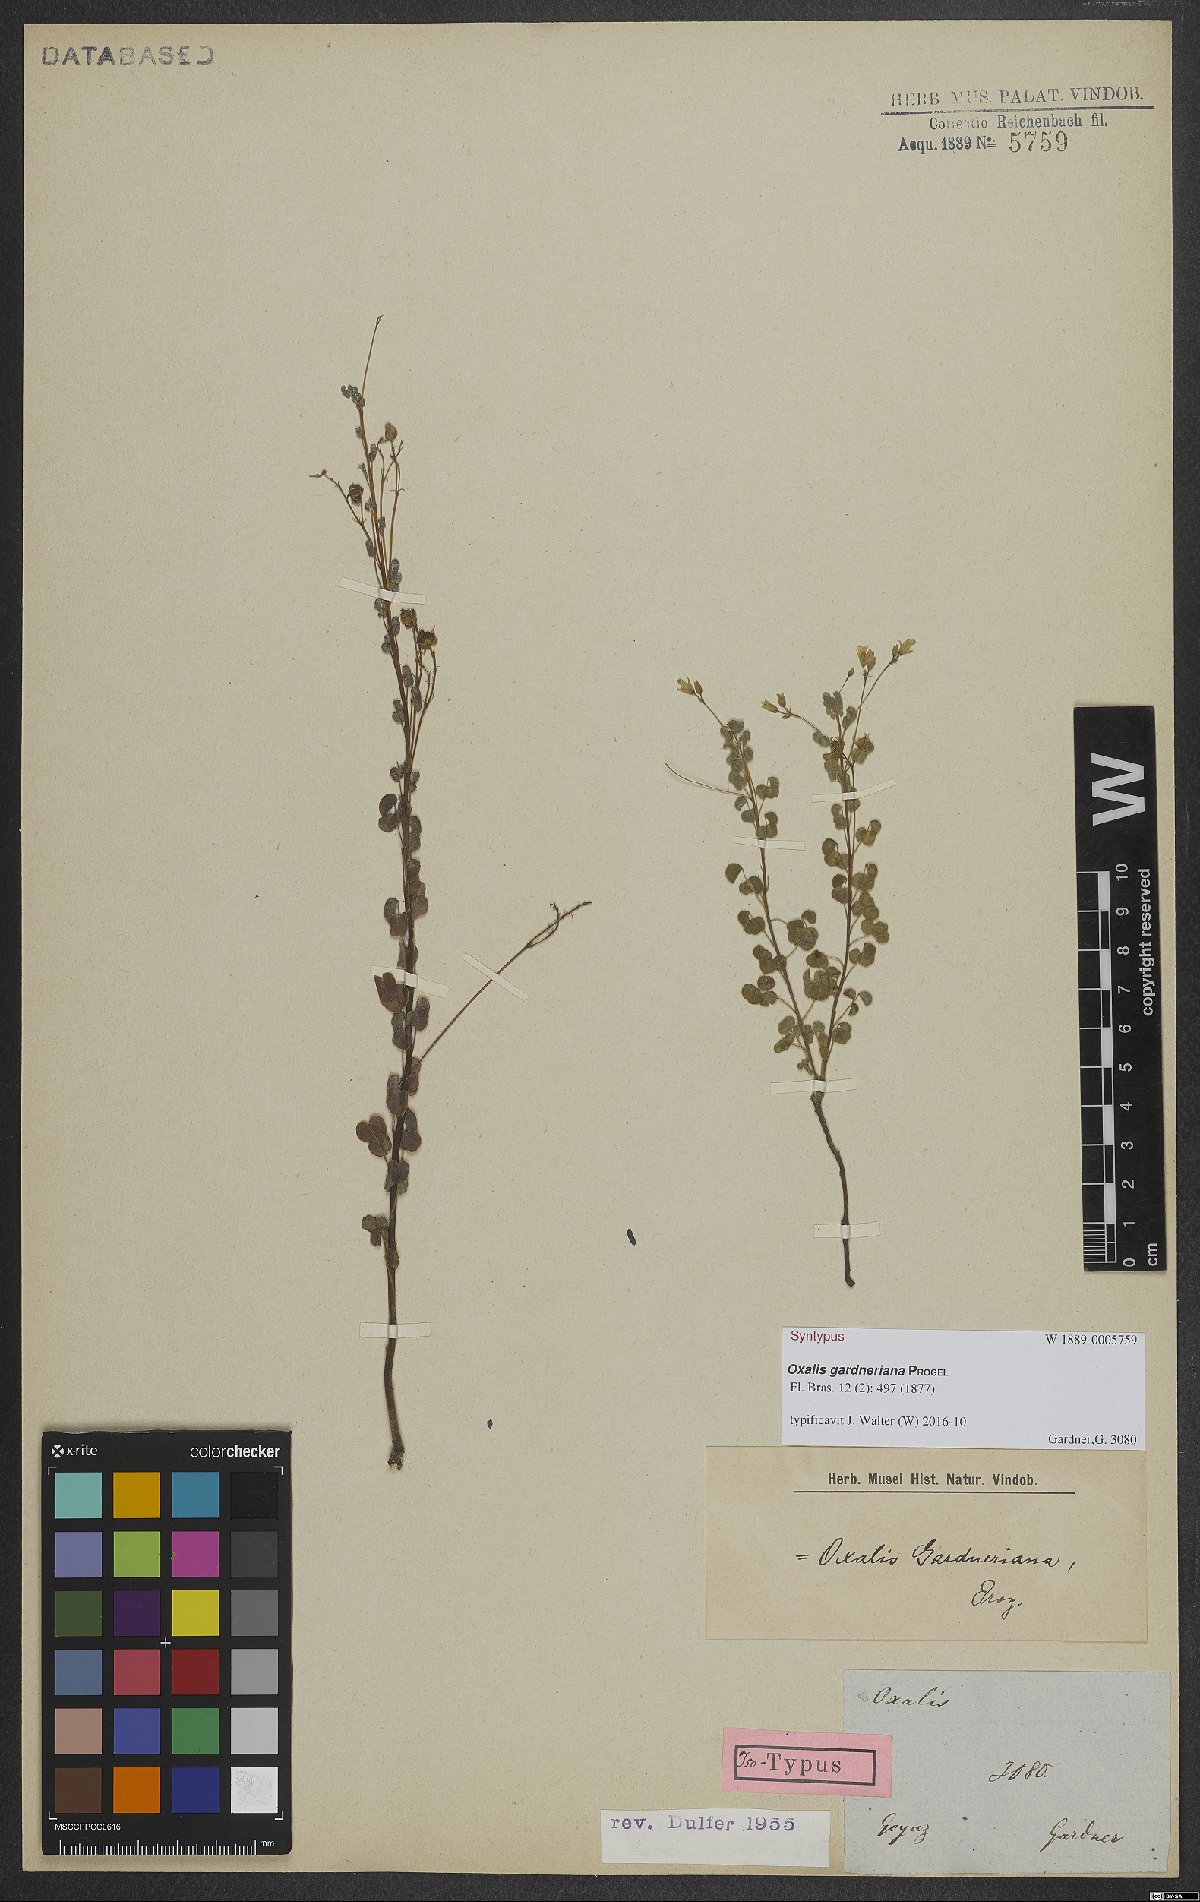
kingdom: Plantae
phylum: Tracheophyta
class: Magnoliopsida
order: Oxalidales
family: Oxalidaceae
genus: Oxalis
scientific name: Oxalis gardneriana
